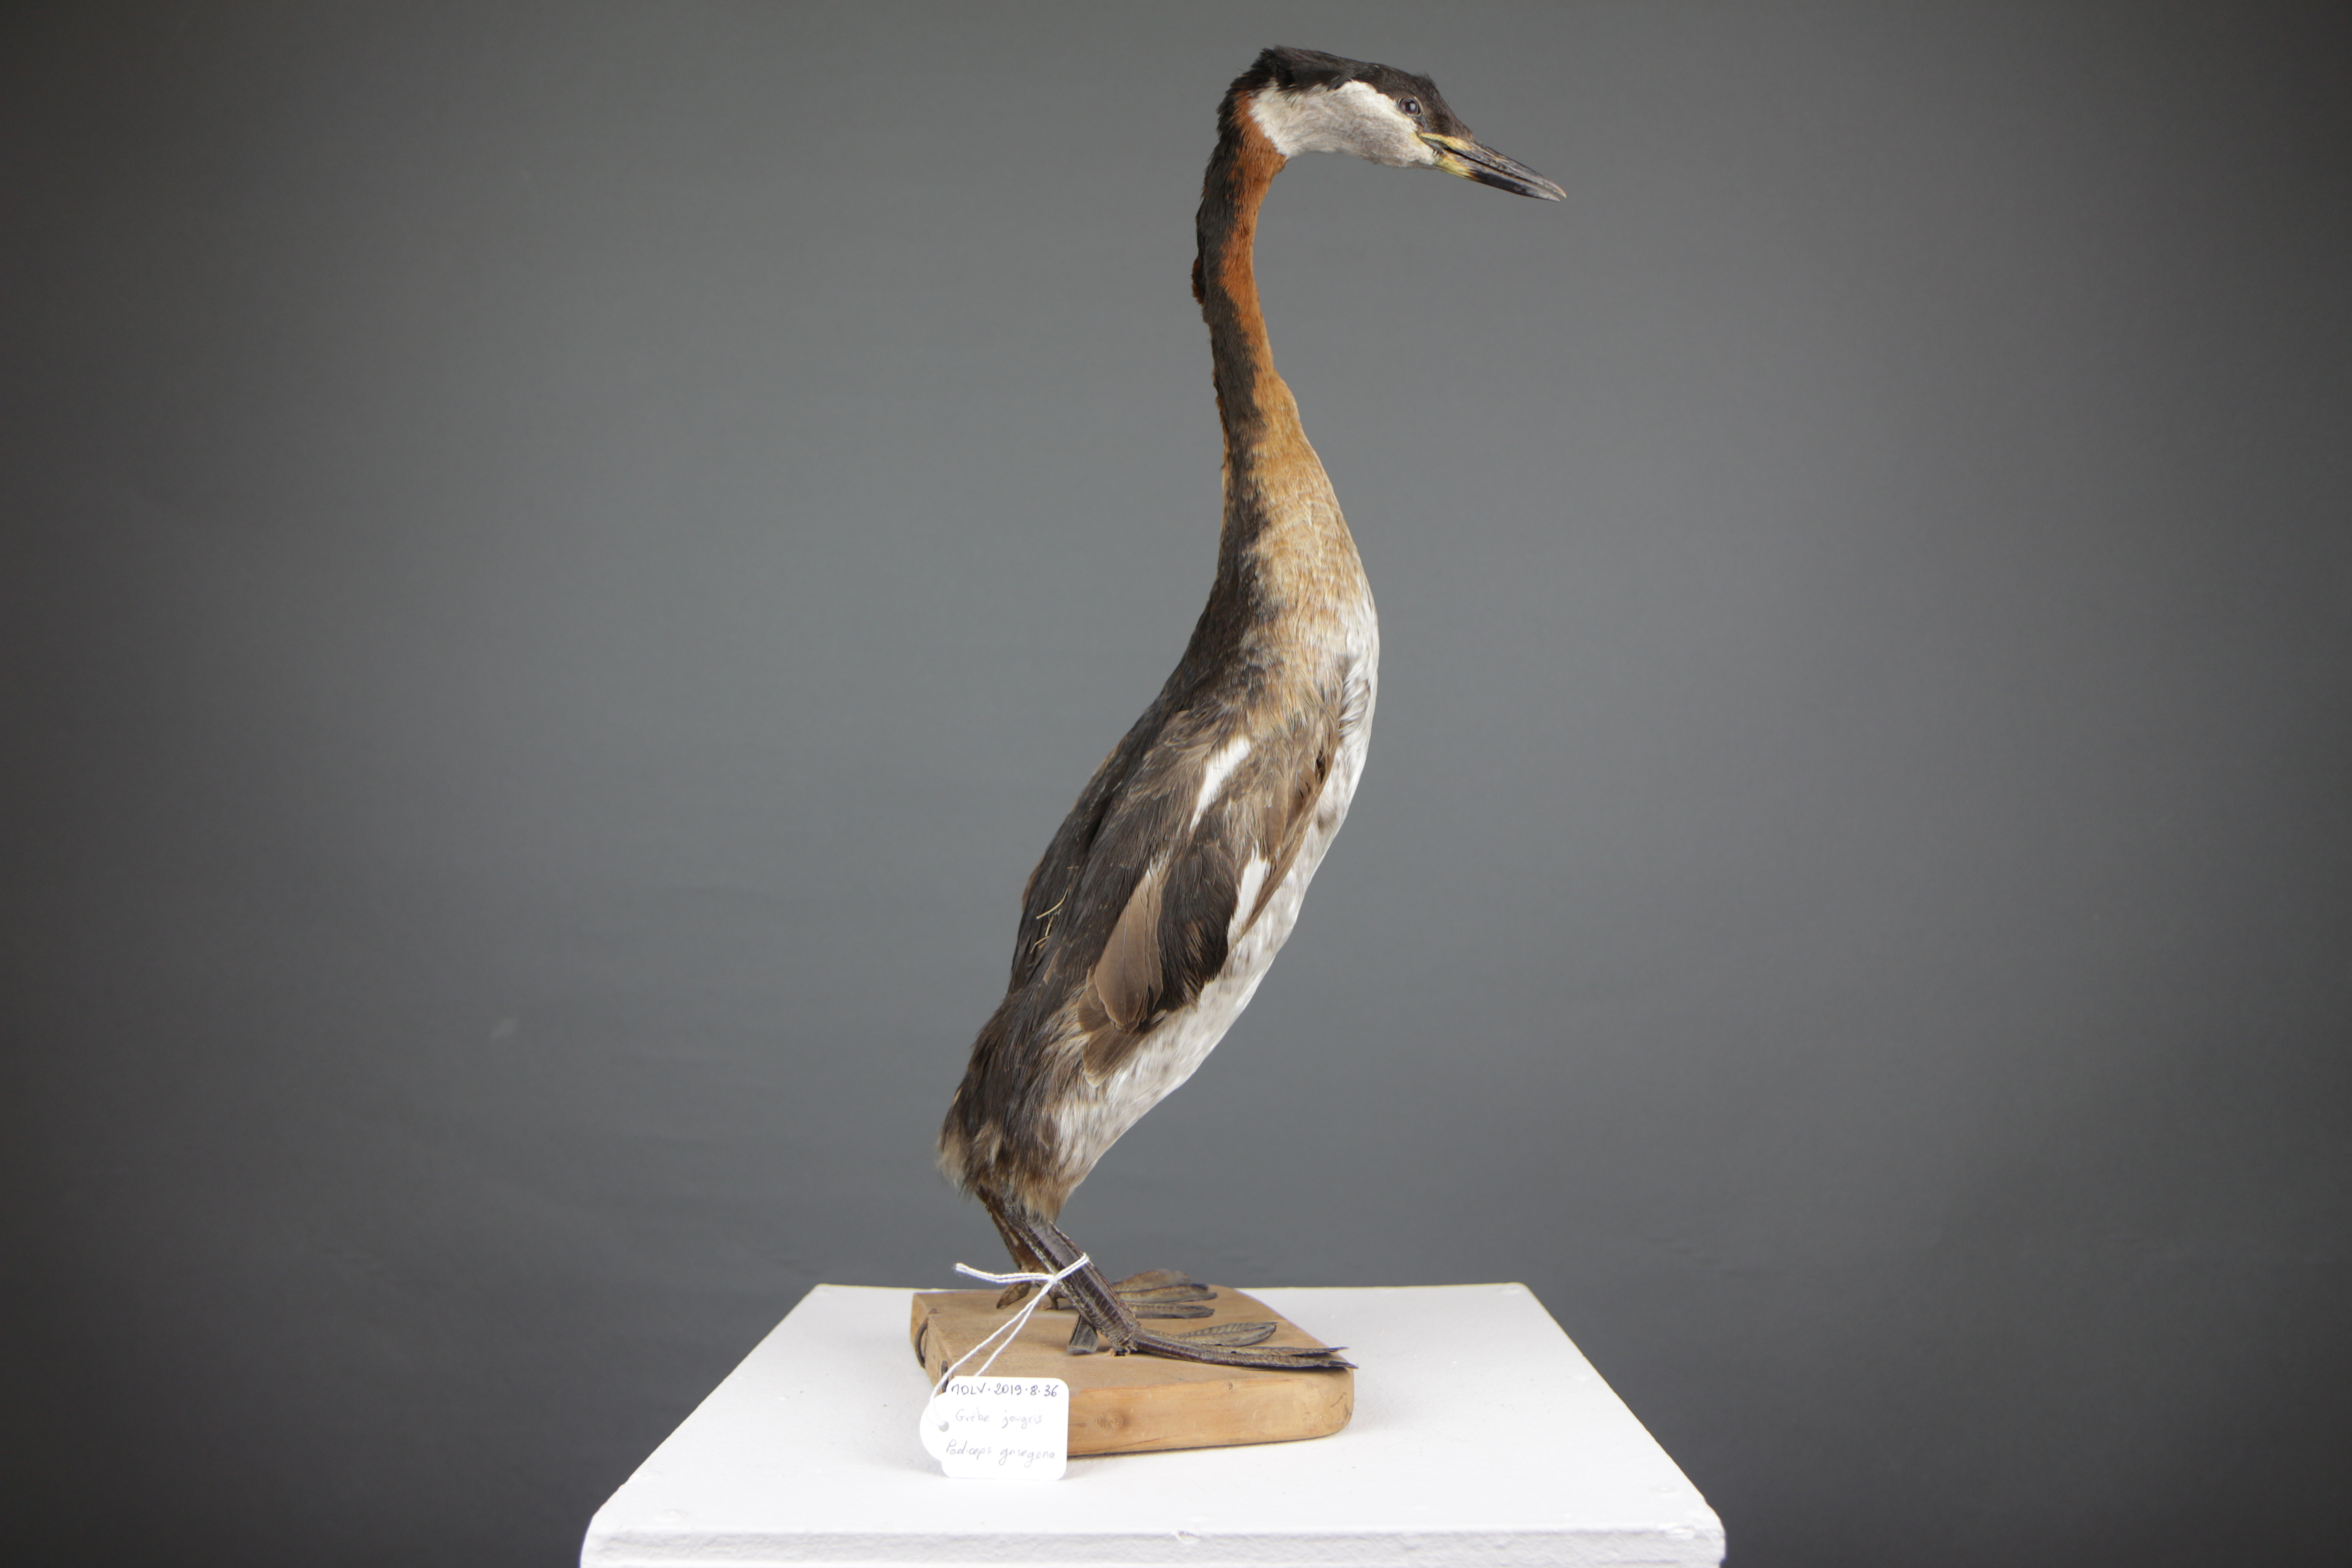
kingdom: Animalia
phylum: Chordata
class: Aves
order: Podicipediformes
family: Podicipedidae
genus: Podiceps
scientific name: Podiceps grisegena
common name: Red-necked grebe
